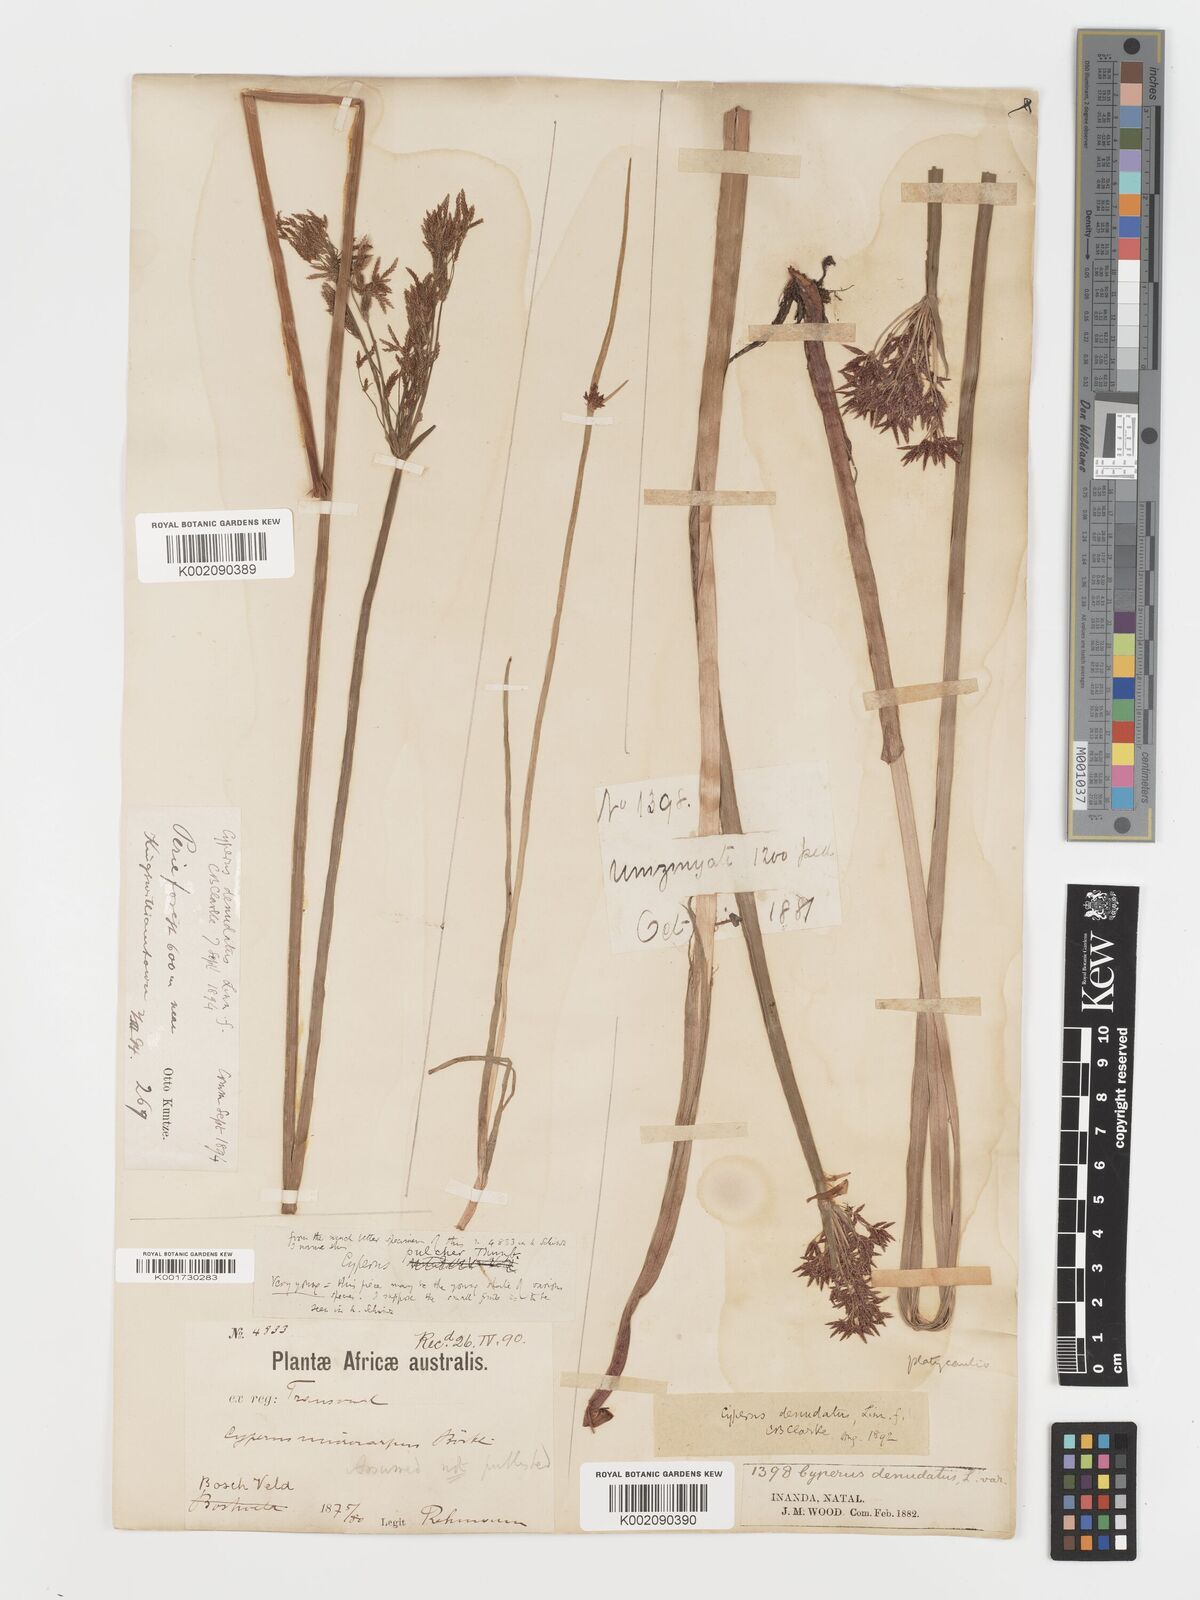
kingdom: Plantae
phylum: Tracheophyta
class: Liliopsida
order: Poales
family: Cyperaceae
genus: Cyperus
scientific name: Cyperus platycaulis
